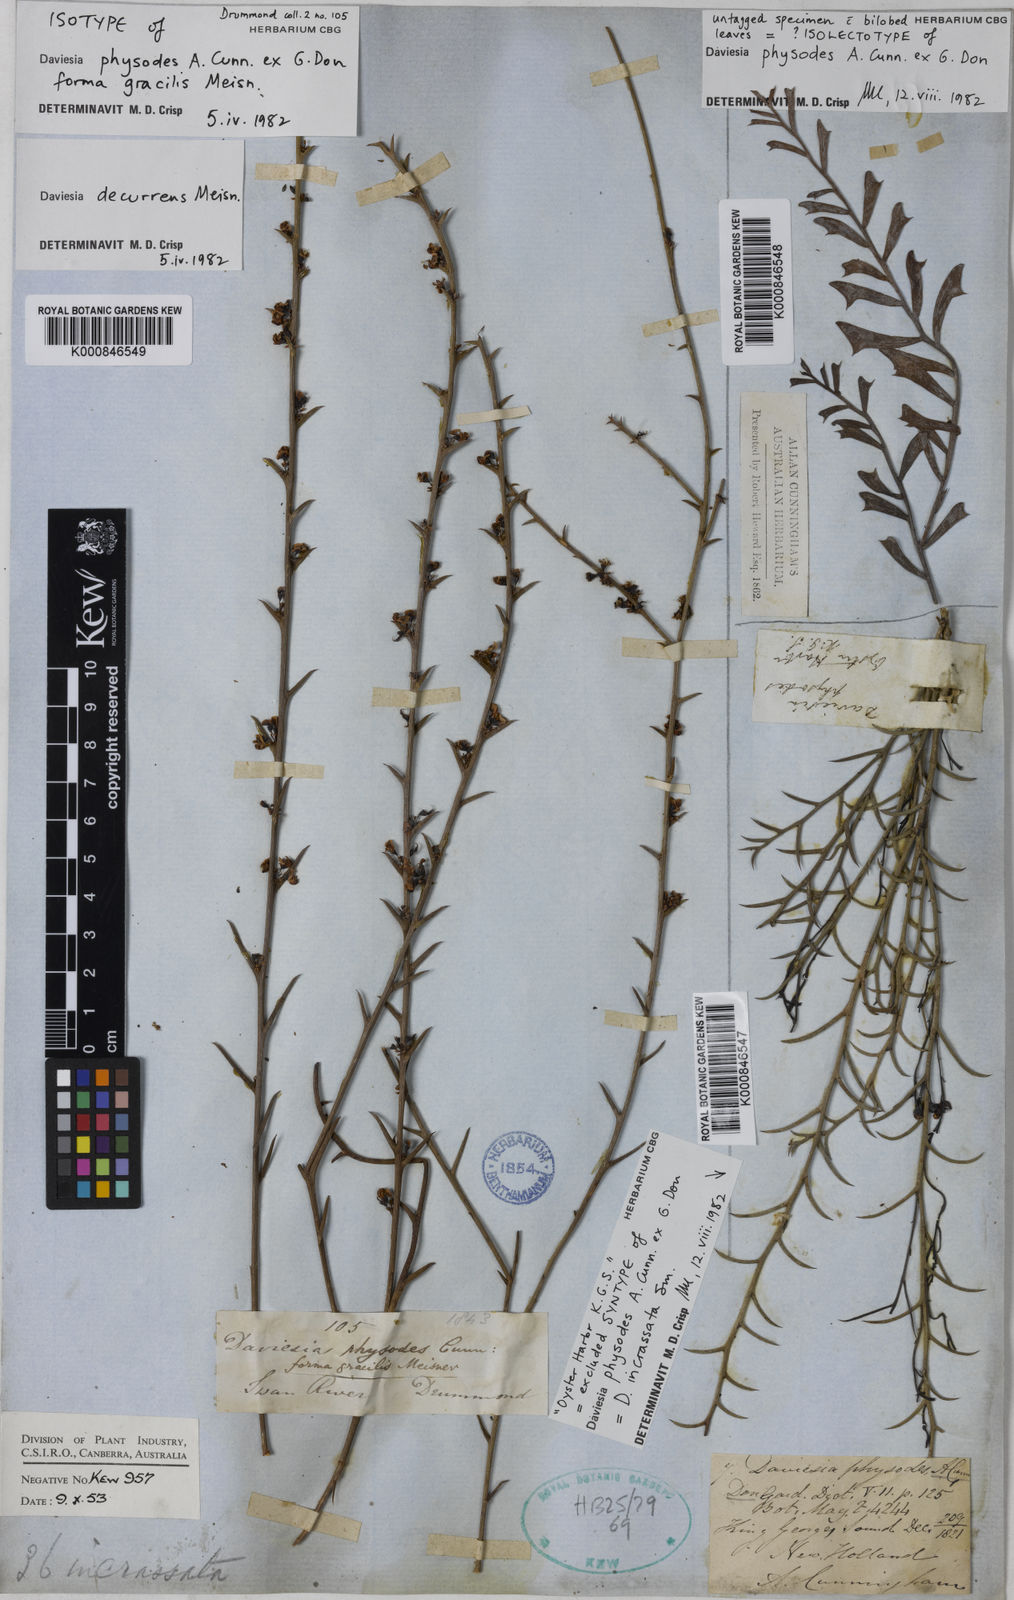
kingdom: Plantae
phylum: Tracheophyta
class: Magnoliopsida
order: Fabales
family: Fabaceae
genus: Daviesia
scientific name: Daviesia physodes
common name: Prickly bitter pea
